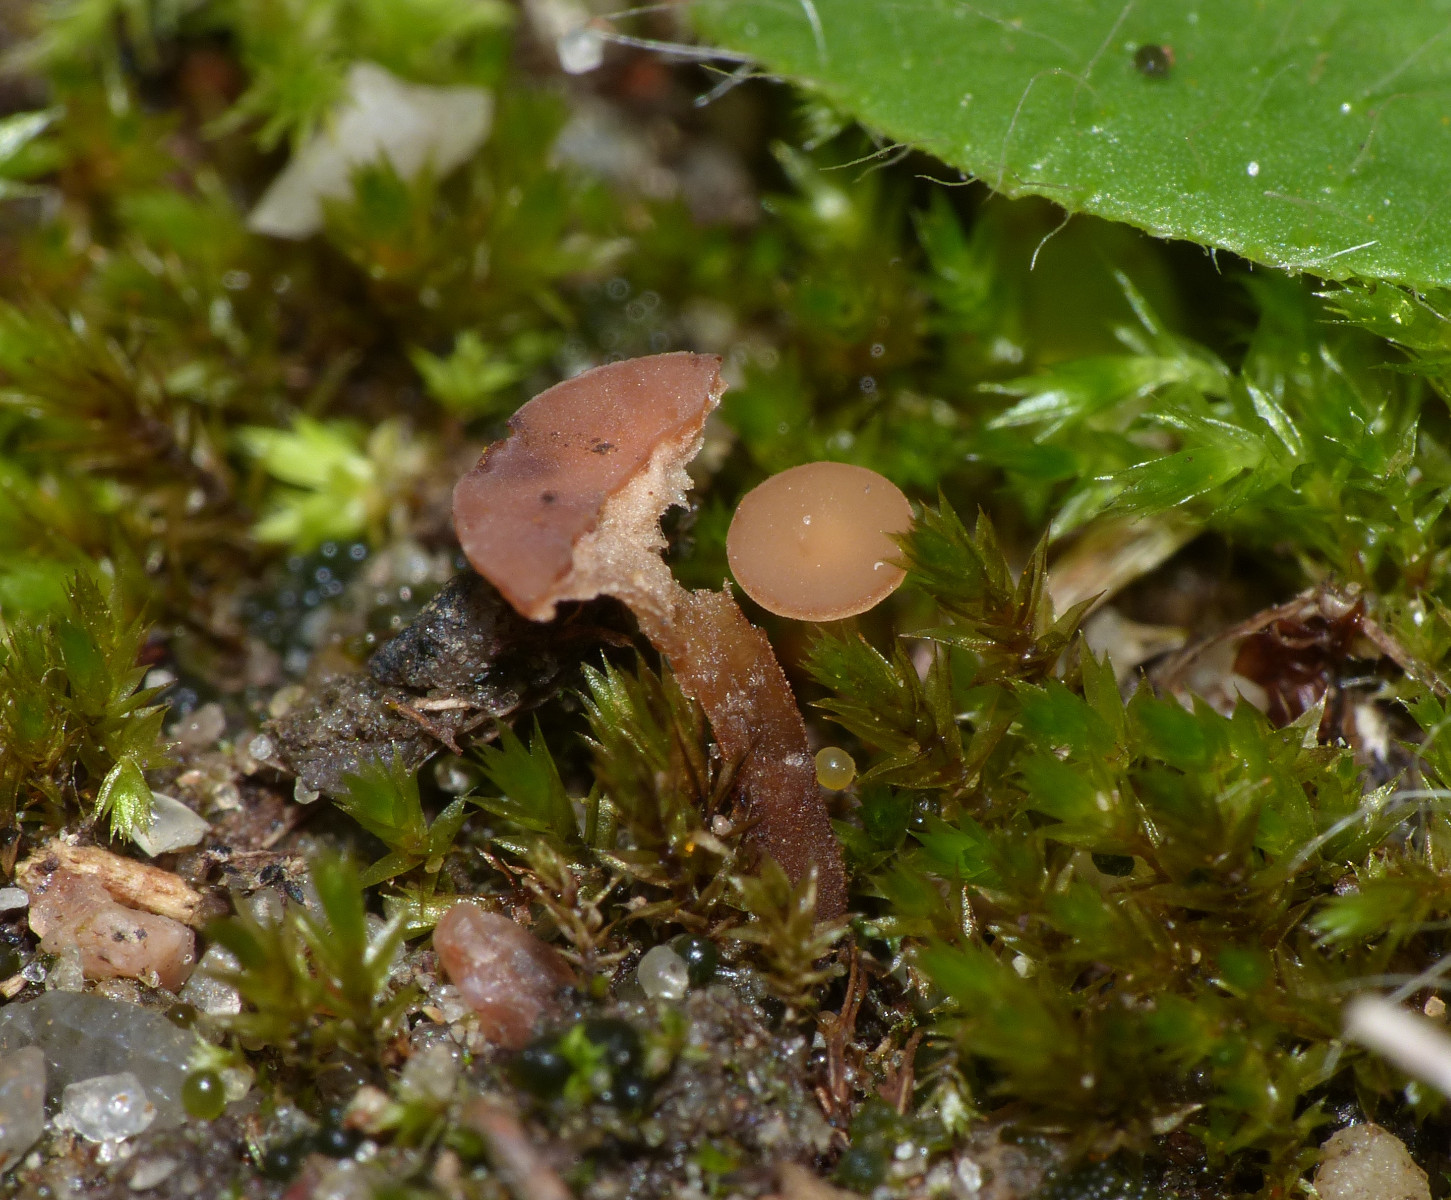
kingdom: Fungi
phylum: Ascomycota
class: Leotiomycetes
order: Helotiales
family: Sclerotiniaceae
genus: Sclerotinia
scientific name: Sclerotinia trifoliorum
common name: ærte-knoldskive
